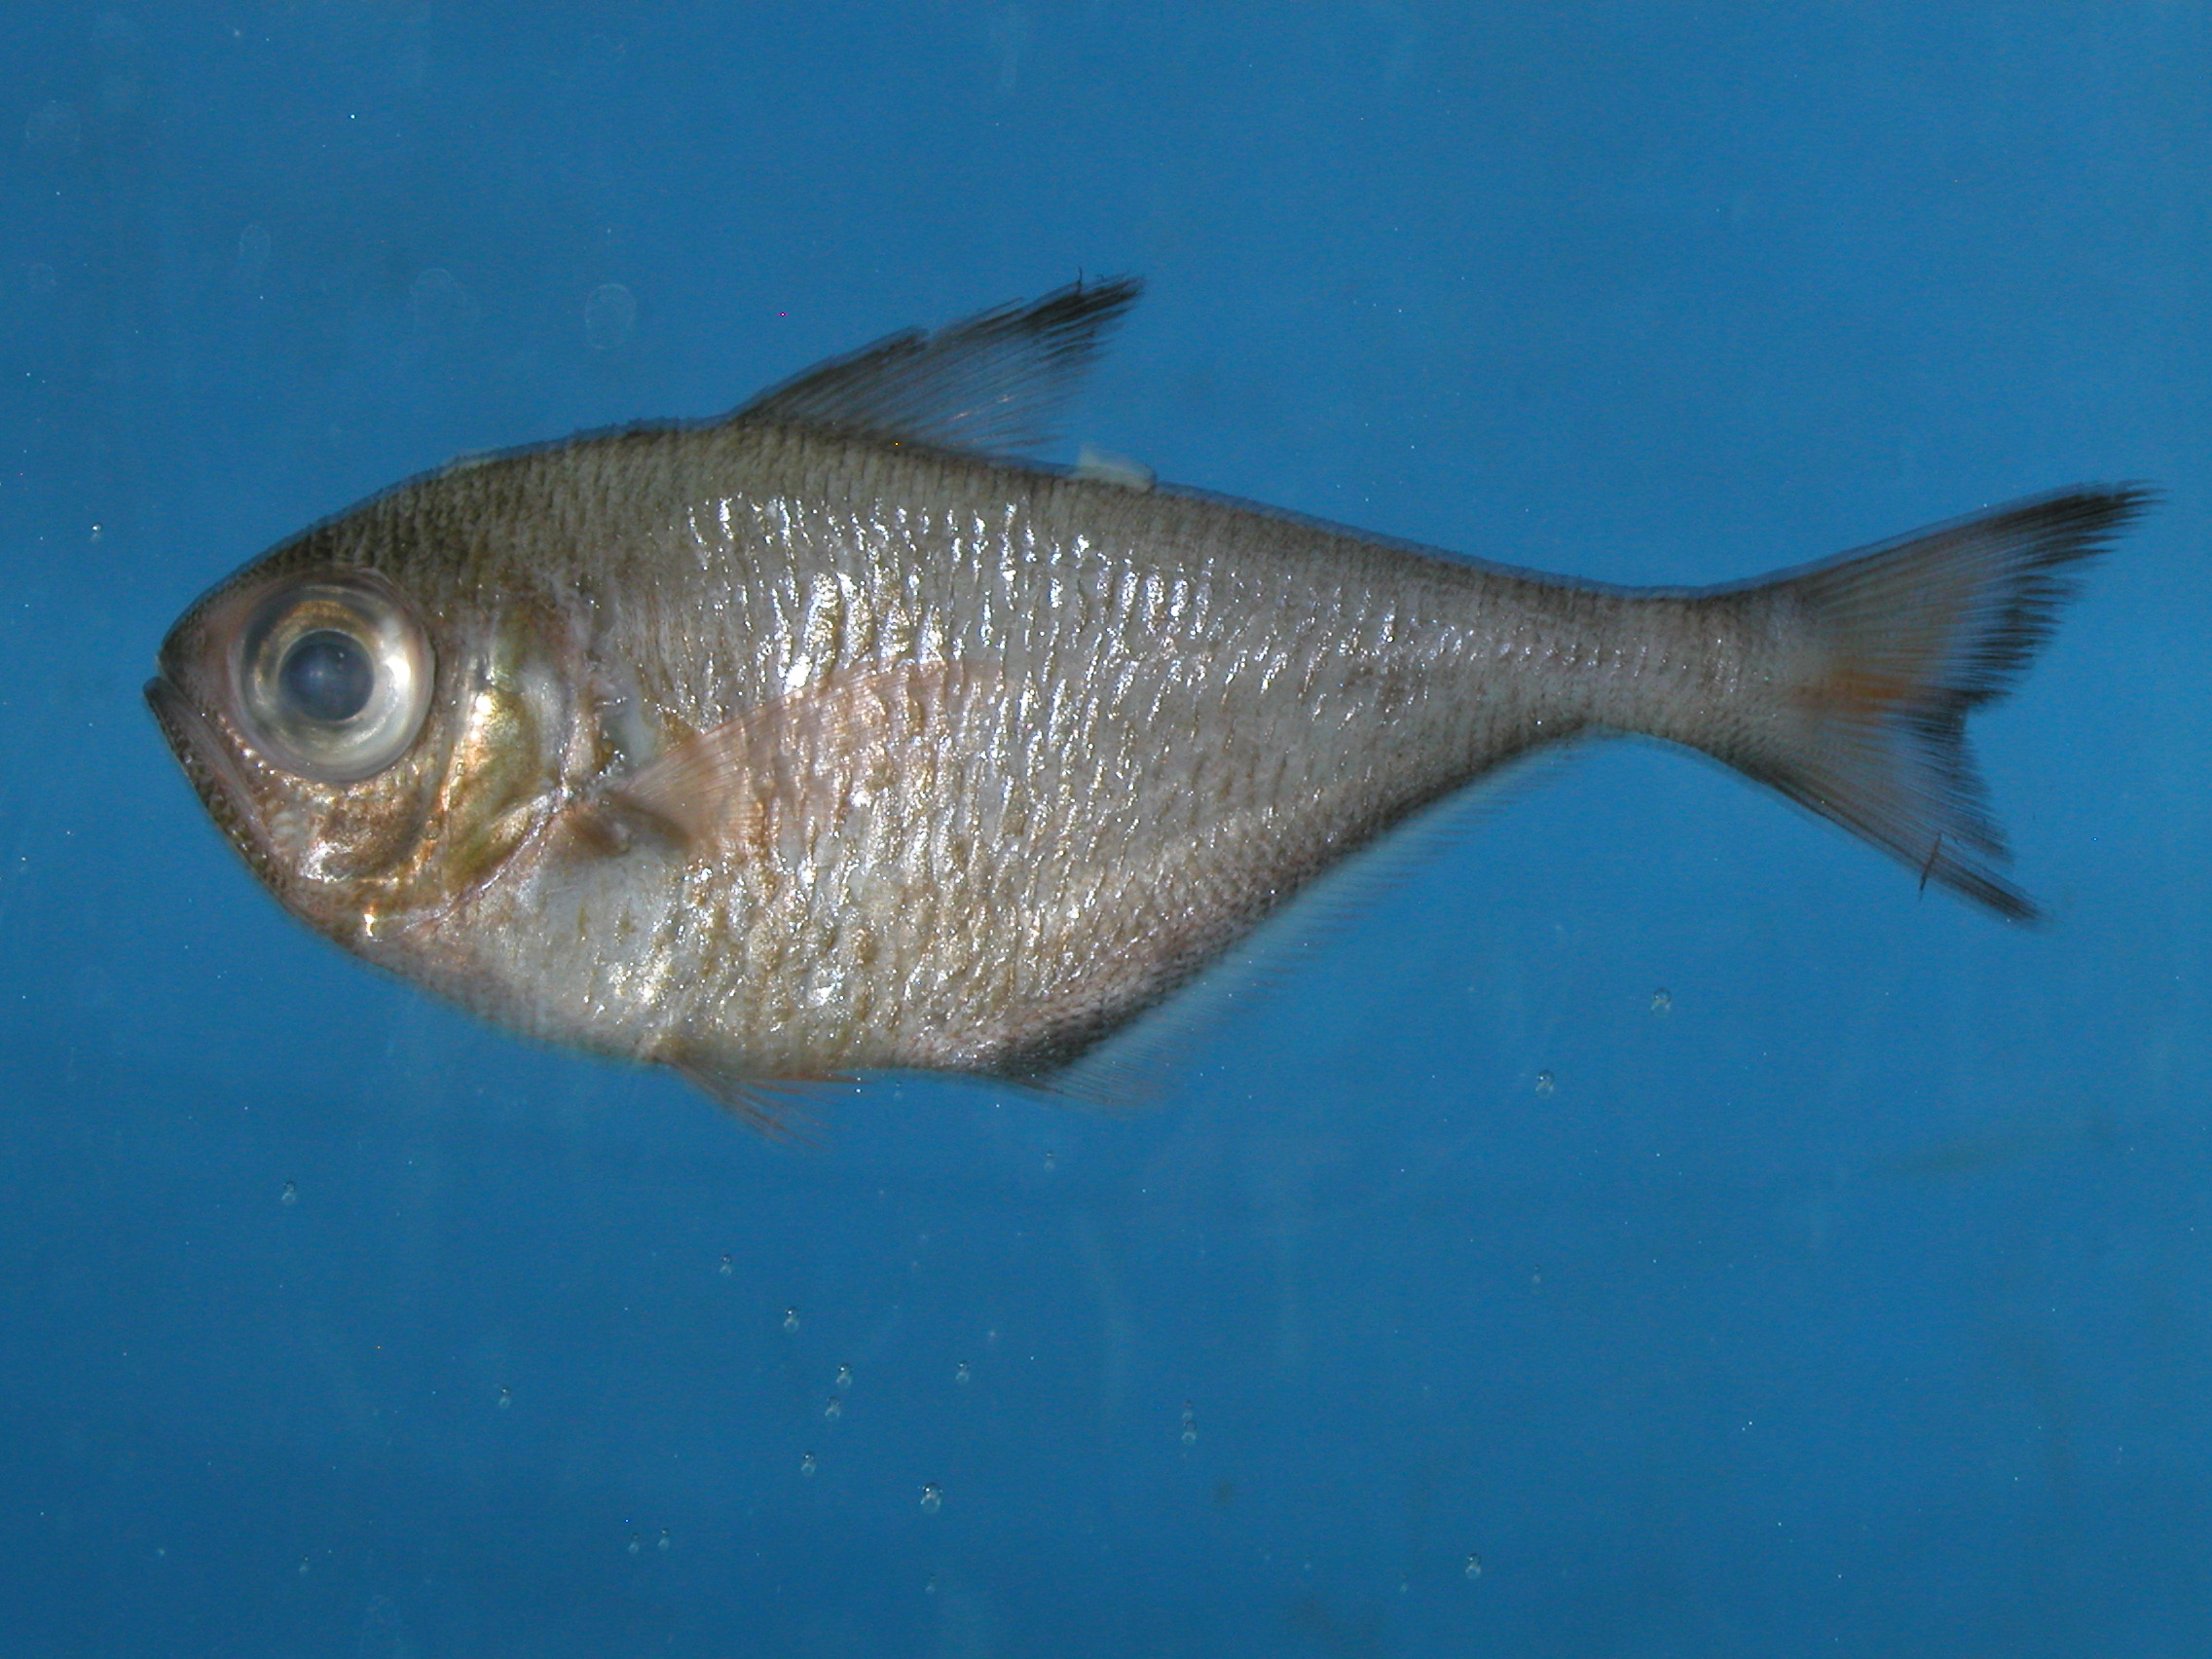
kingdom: Animalia
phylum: Chordata
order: Perciformes
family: Pempheridae
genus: Pempheris
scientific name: Pempheris tominagai
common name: Black-stripe sweeper
